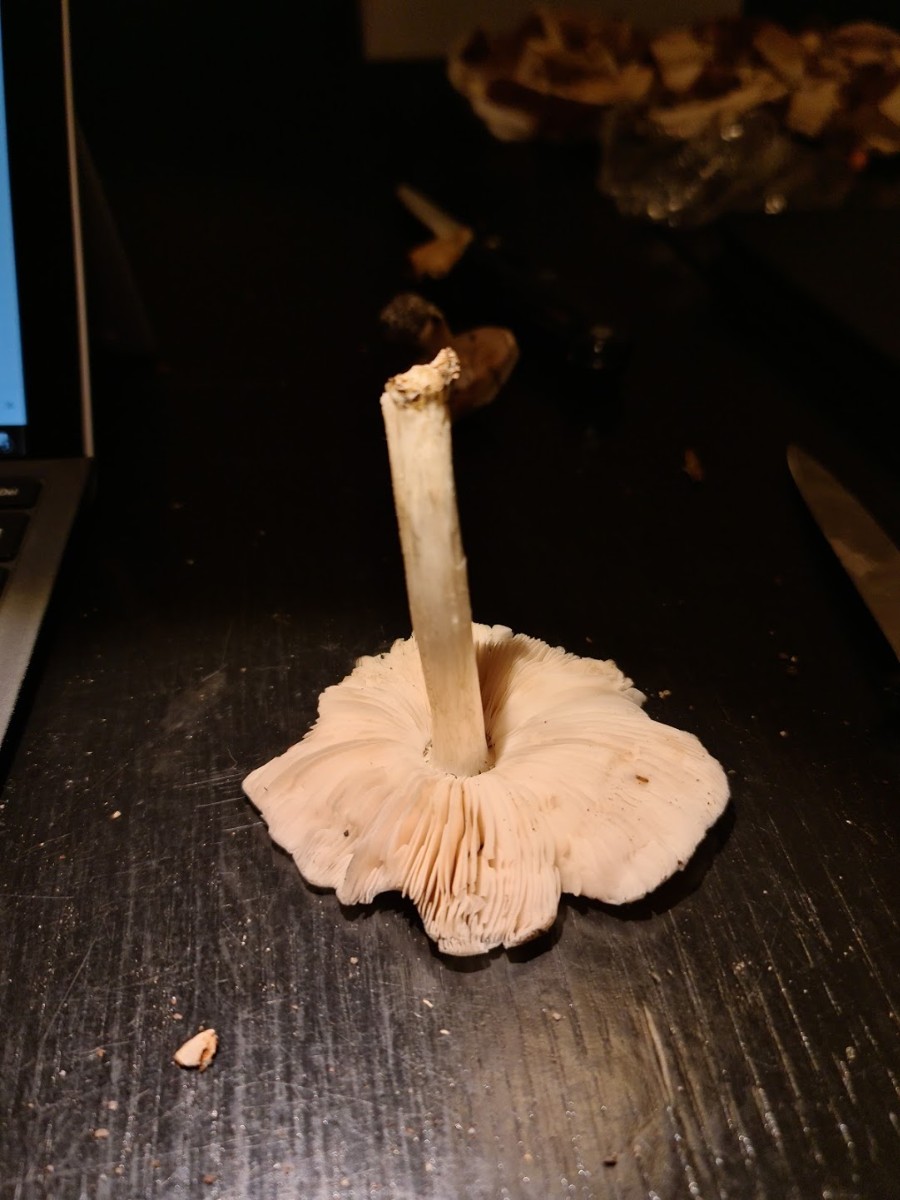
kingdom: Fungi
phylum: Basidiomycota
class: Agaricomycetes
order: Agaricales
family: Pluteaceae
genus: Pluteus
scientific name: Pluteus salicinus
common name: stiv skærmhat
